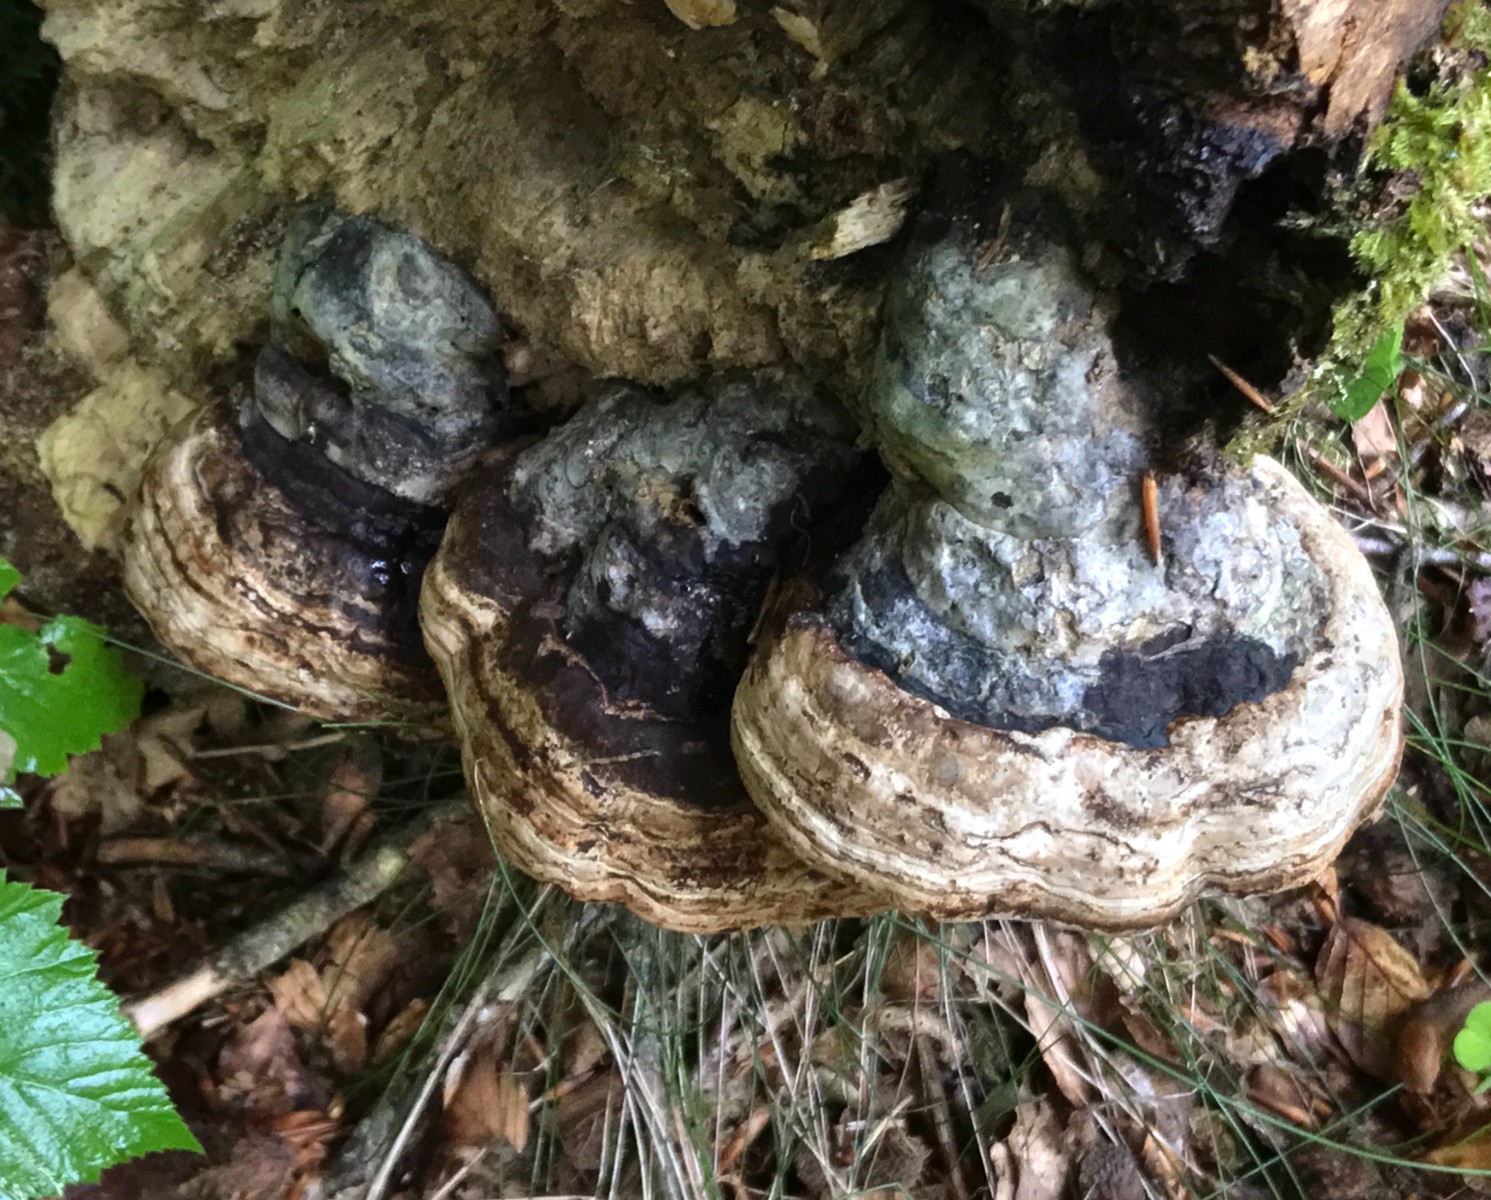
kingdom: Fungi
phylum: Basidiomycota
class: Agaricomycetes
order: Polyporales
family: Polyporaceae
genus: Fomes
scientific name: Fomes fomentarius
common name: tøndersvamp
